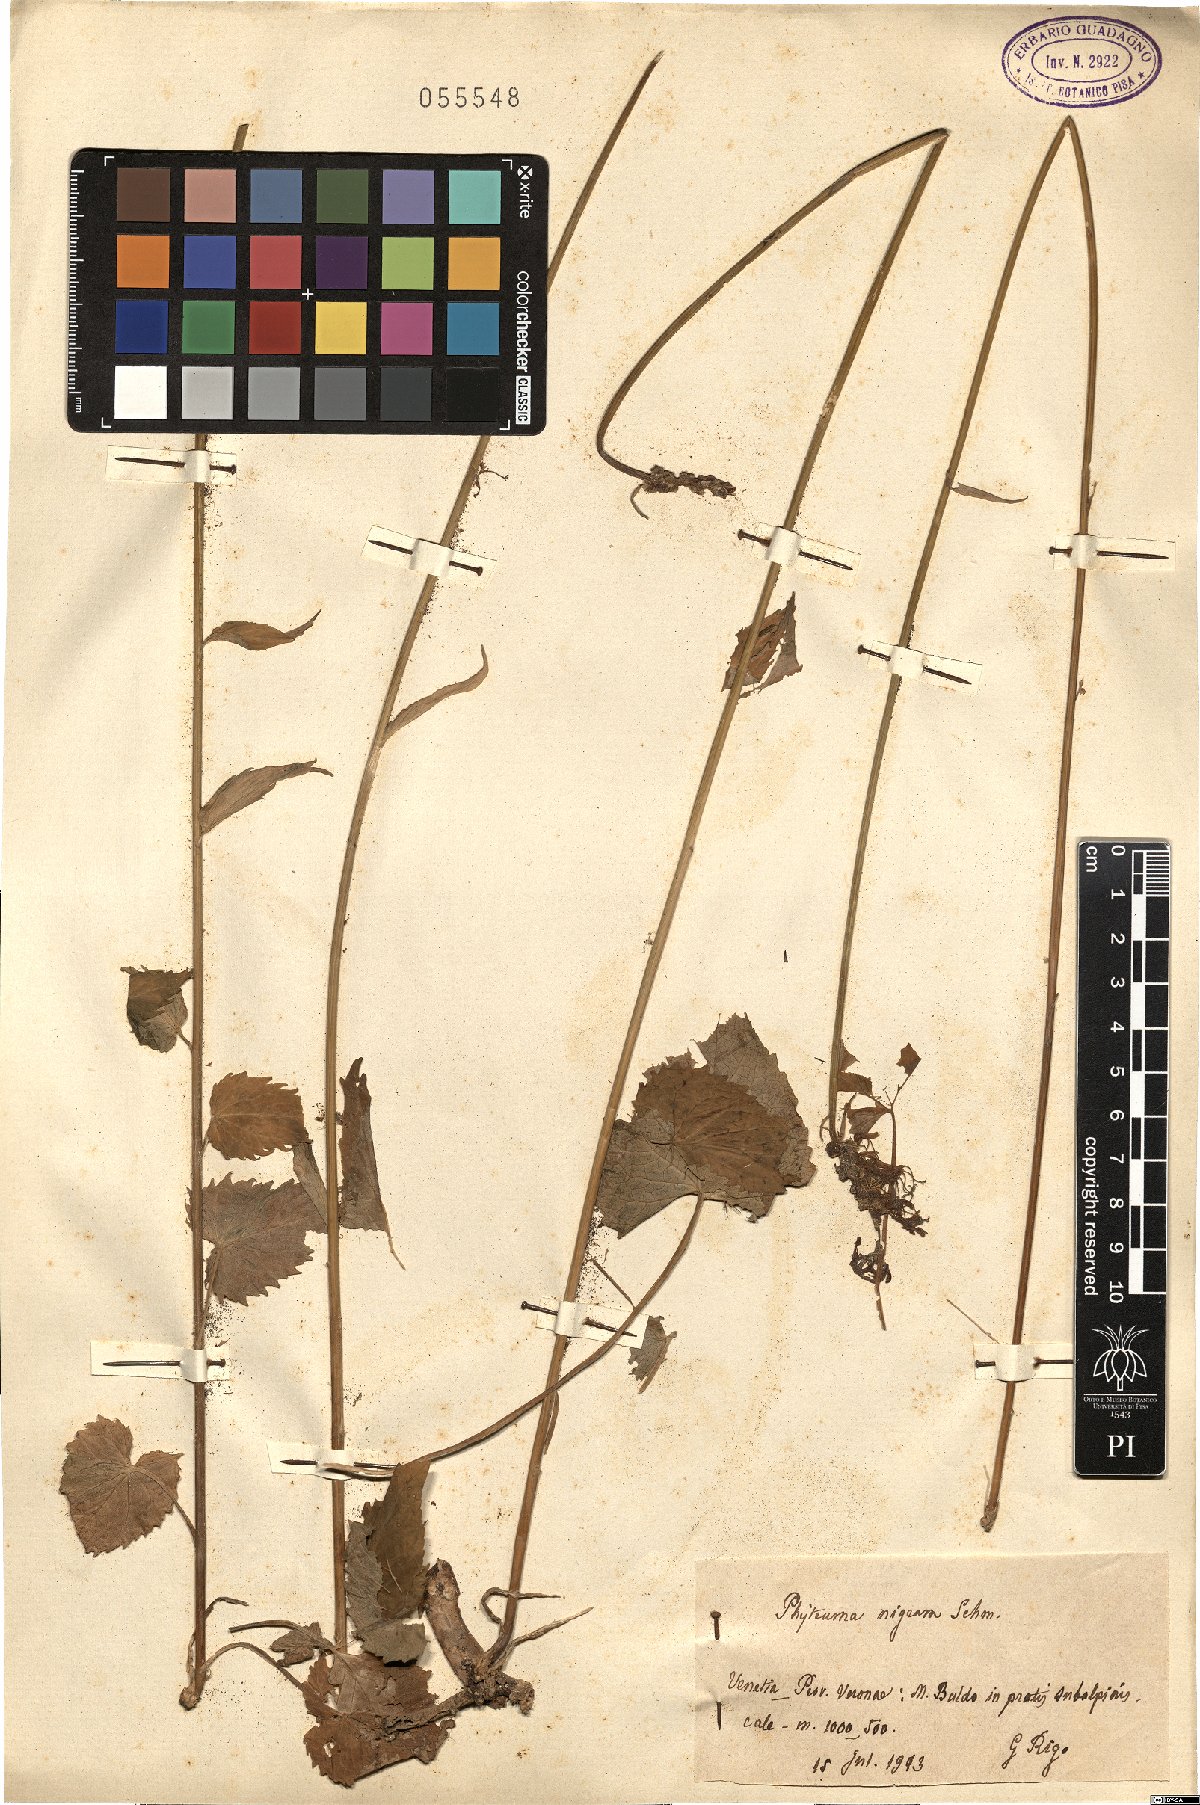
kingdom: Plantae
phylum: Tracheophyta
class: Magnoliopsida
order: Asterales
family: Campanulaceae
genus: Phyteuma
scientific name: Phyteuma nigrum
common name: Black rampion
